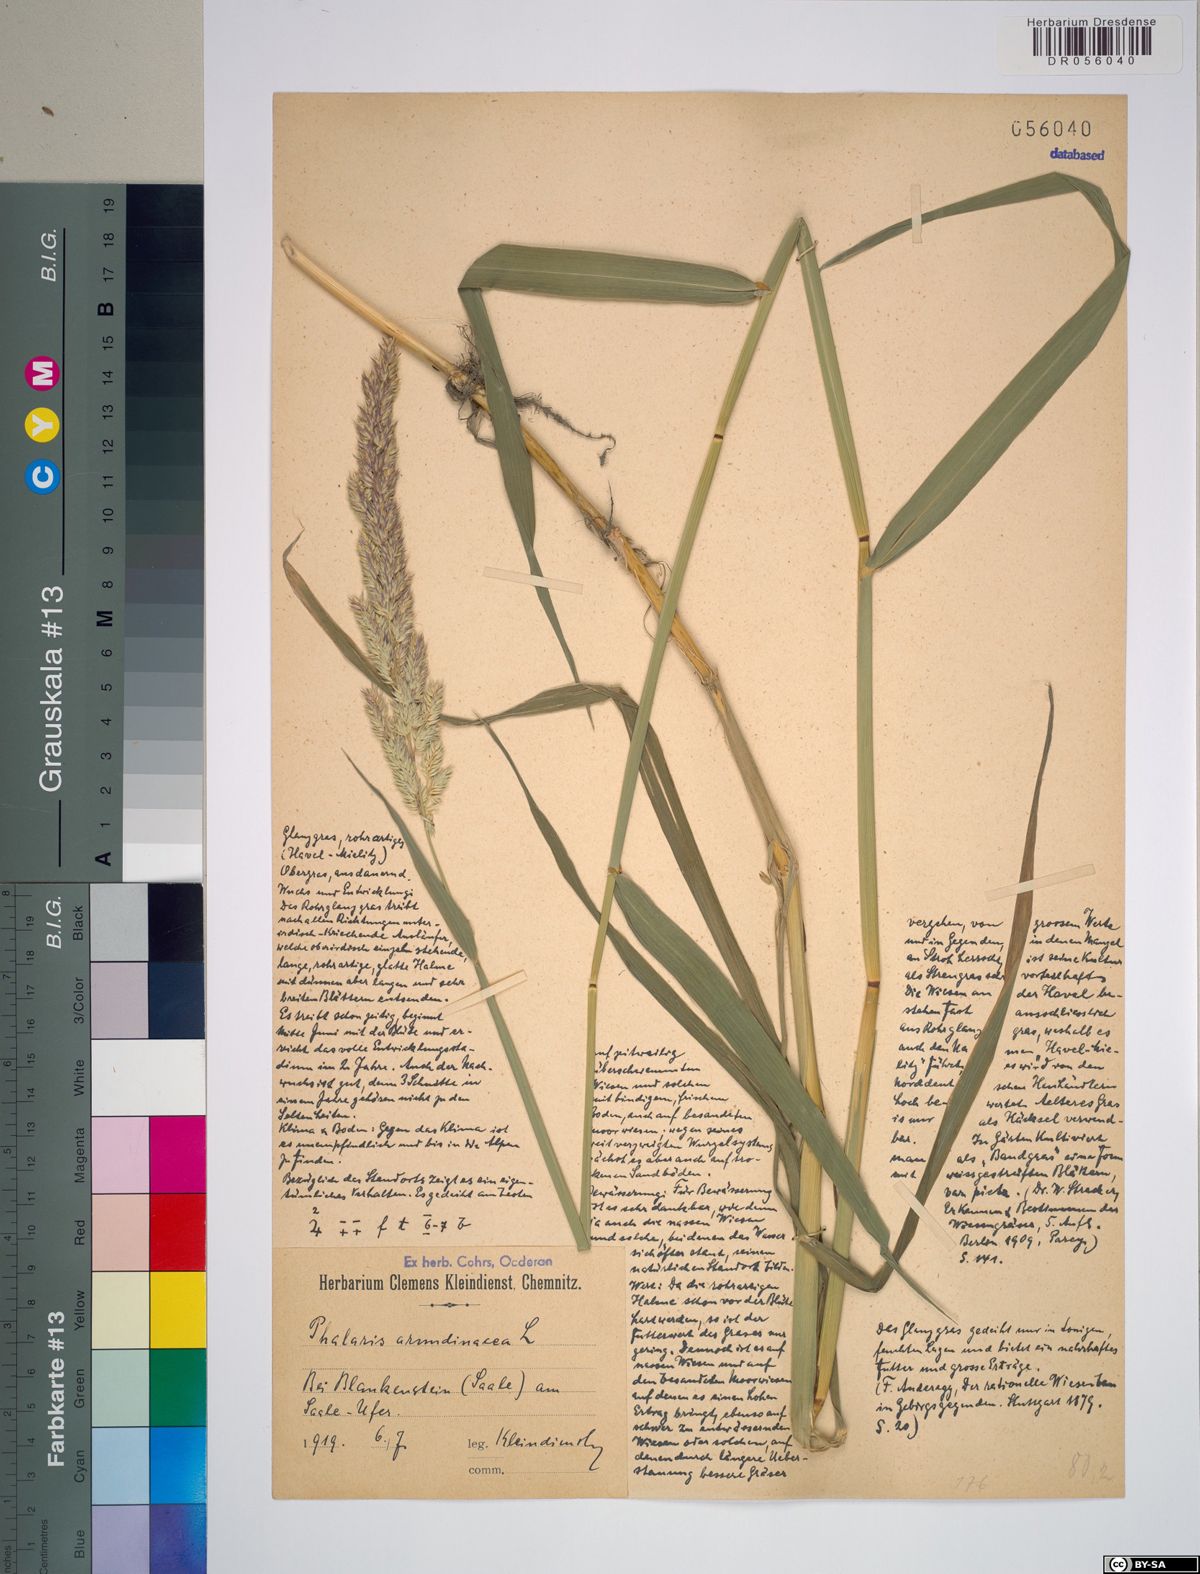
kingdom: Plantae
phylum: Tracheophyta
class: Liliopsida
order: Poales
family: Poaceae
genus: Phalaris
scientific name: Phalaris arundinacea
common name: Reed canary-grass
